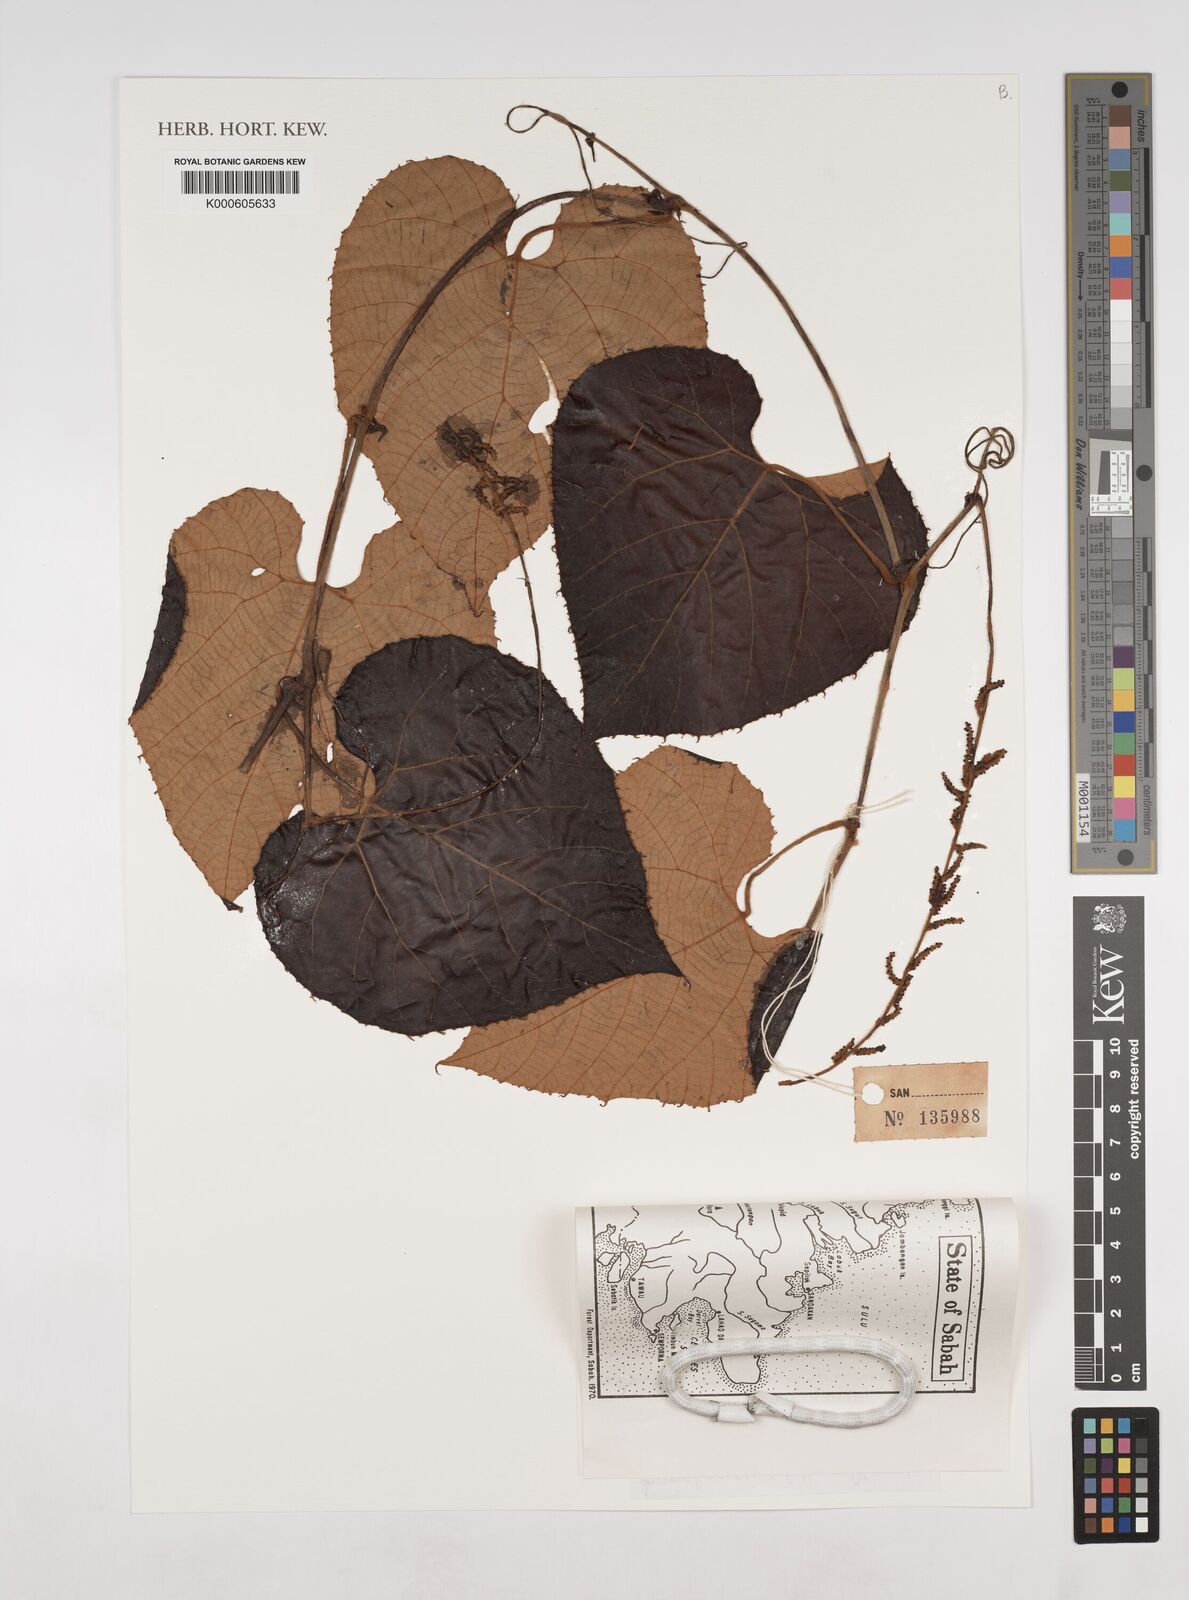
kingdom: Plantae
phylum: Tracheophyta
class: Magnoliopsida
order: Vitales
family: Vitaceae
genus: Ampelocissus
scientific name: Ampelocissus filipes
